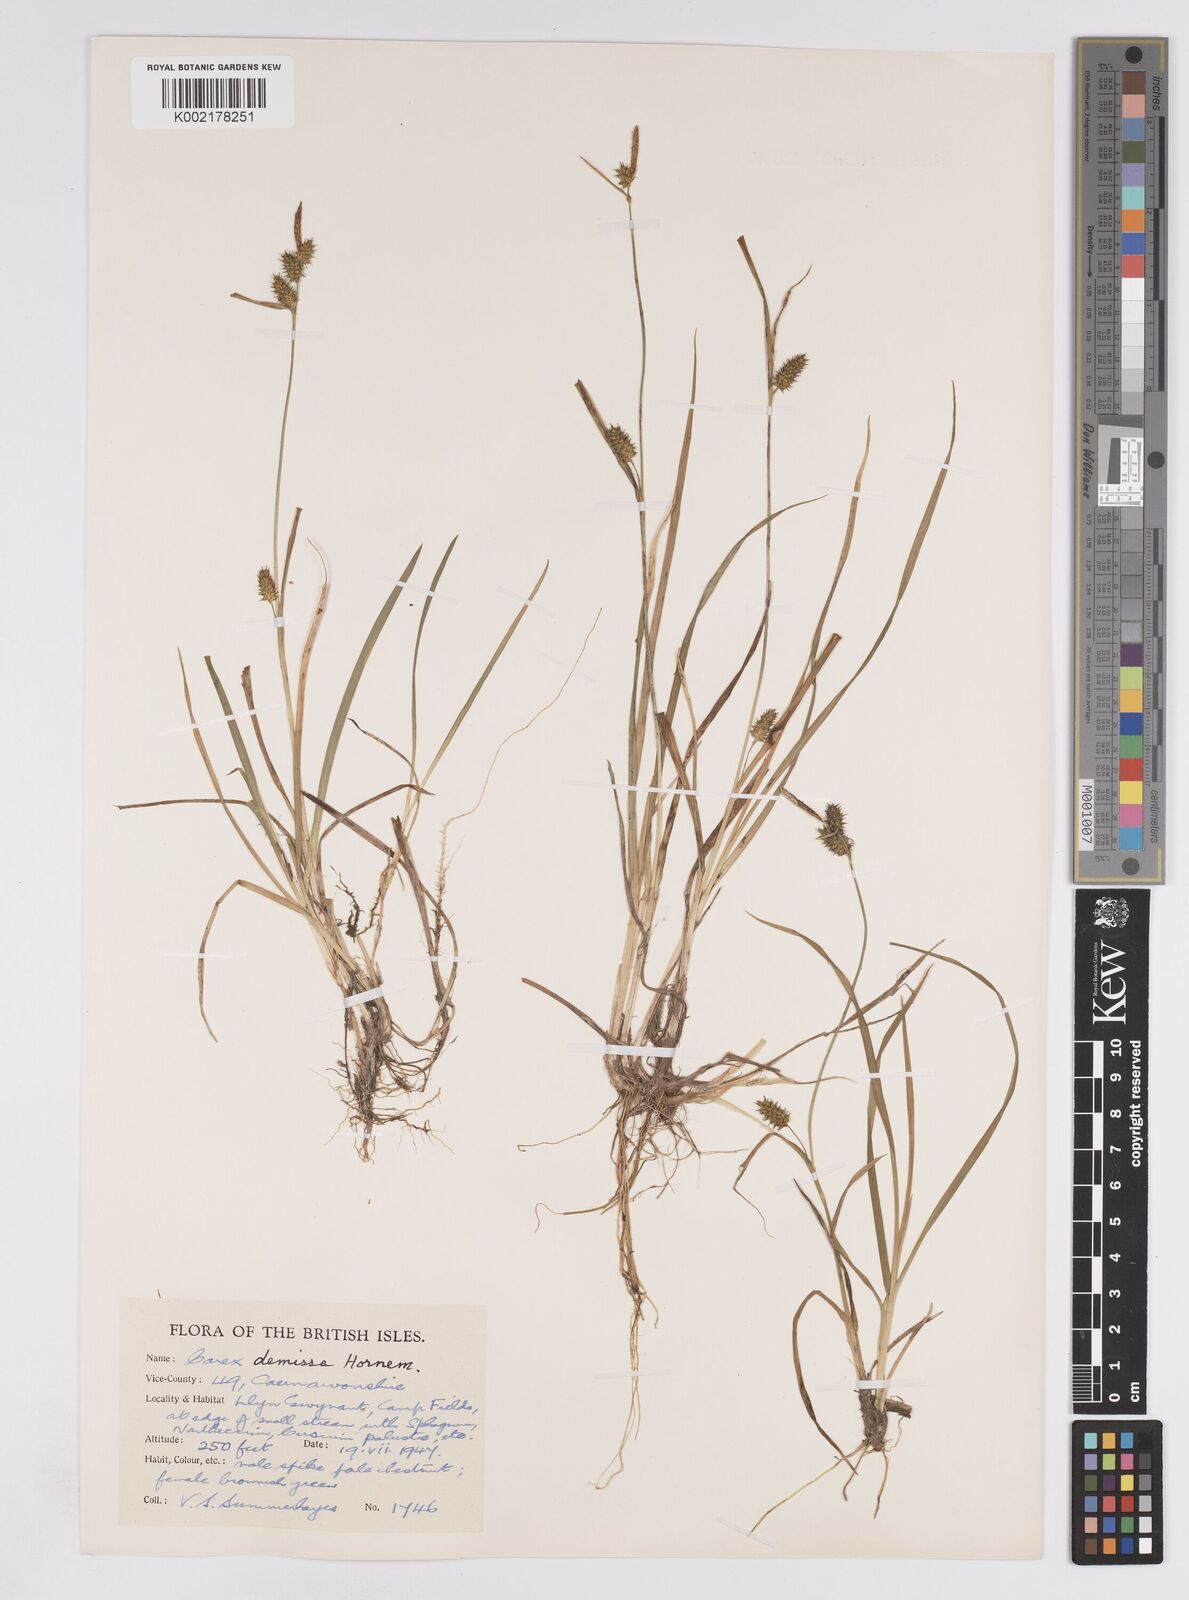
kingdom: Plantae
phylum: Tracheophyta
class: Liliopsida
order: Poales
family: Cyperaceae
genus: Carex
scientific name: Carex demissa
